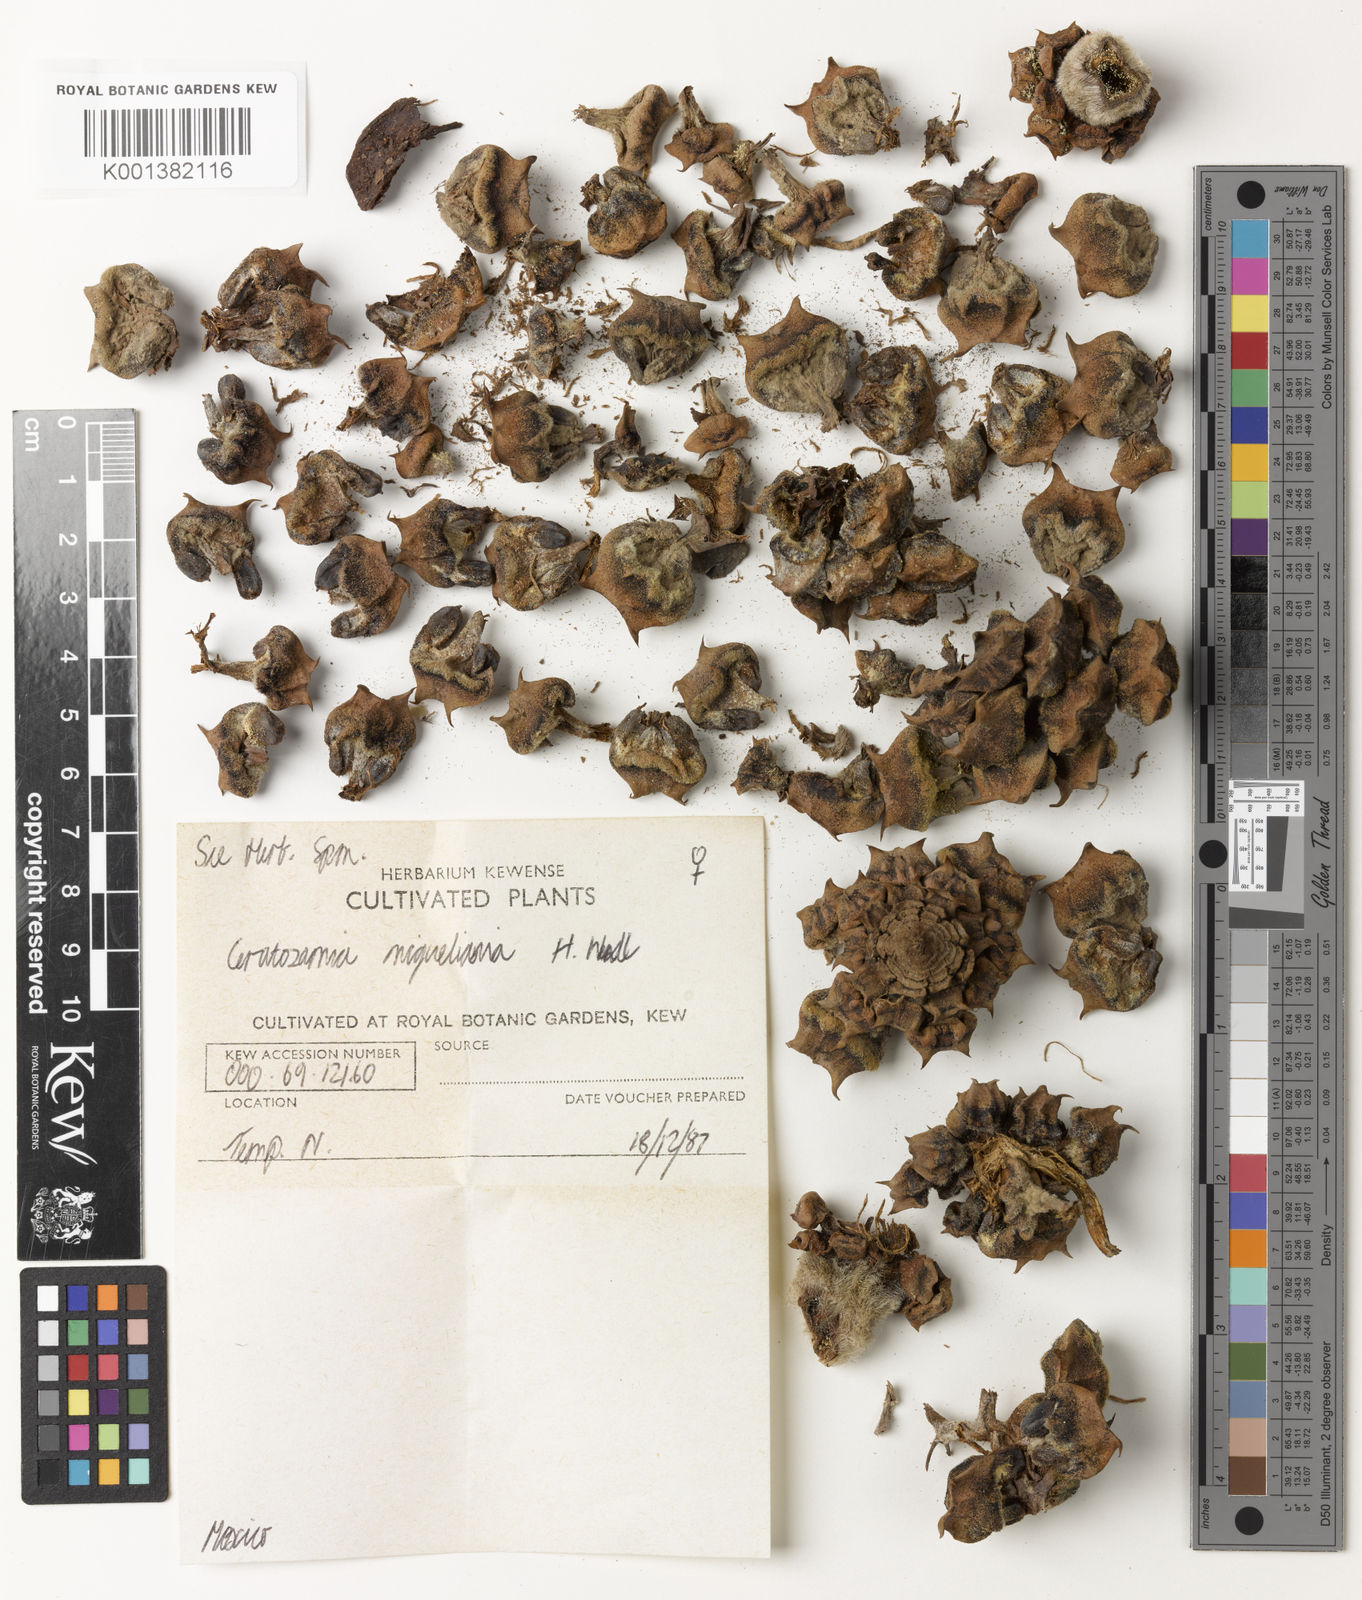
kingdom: Plantae
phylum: Tracheophyta
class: Cycadopsida
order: Cycadales
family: Zamiaceae
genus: Ceratozamia
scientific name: Ceratozamia miqueliana
